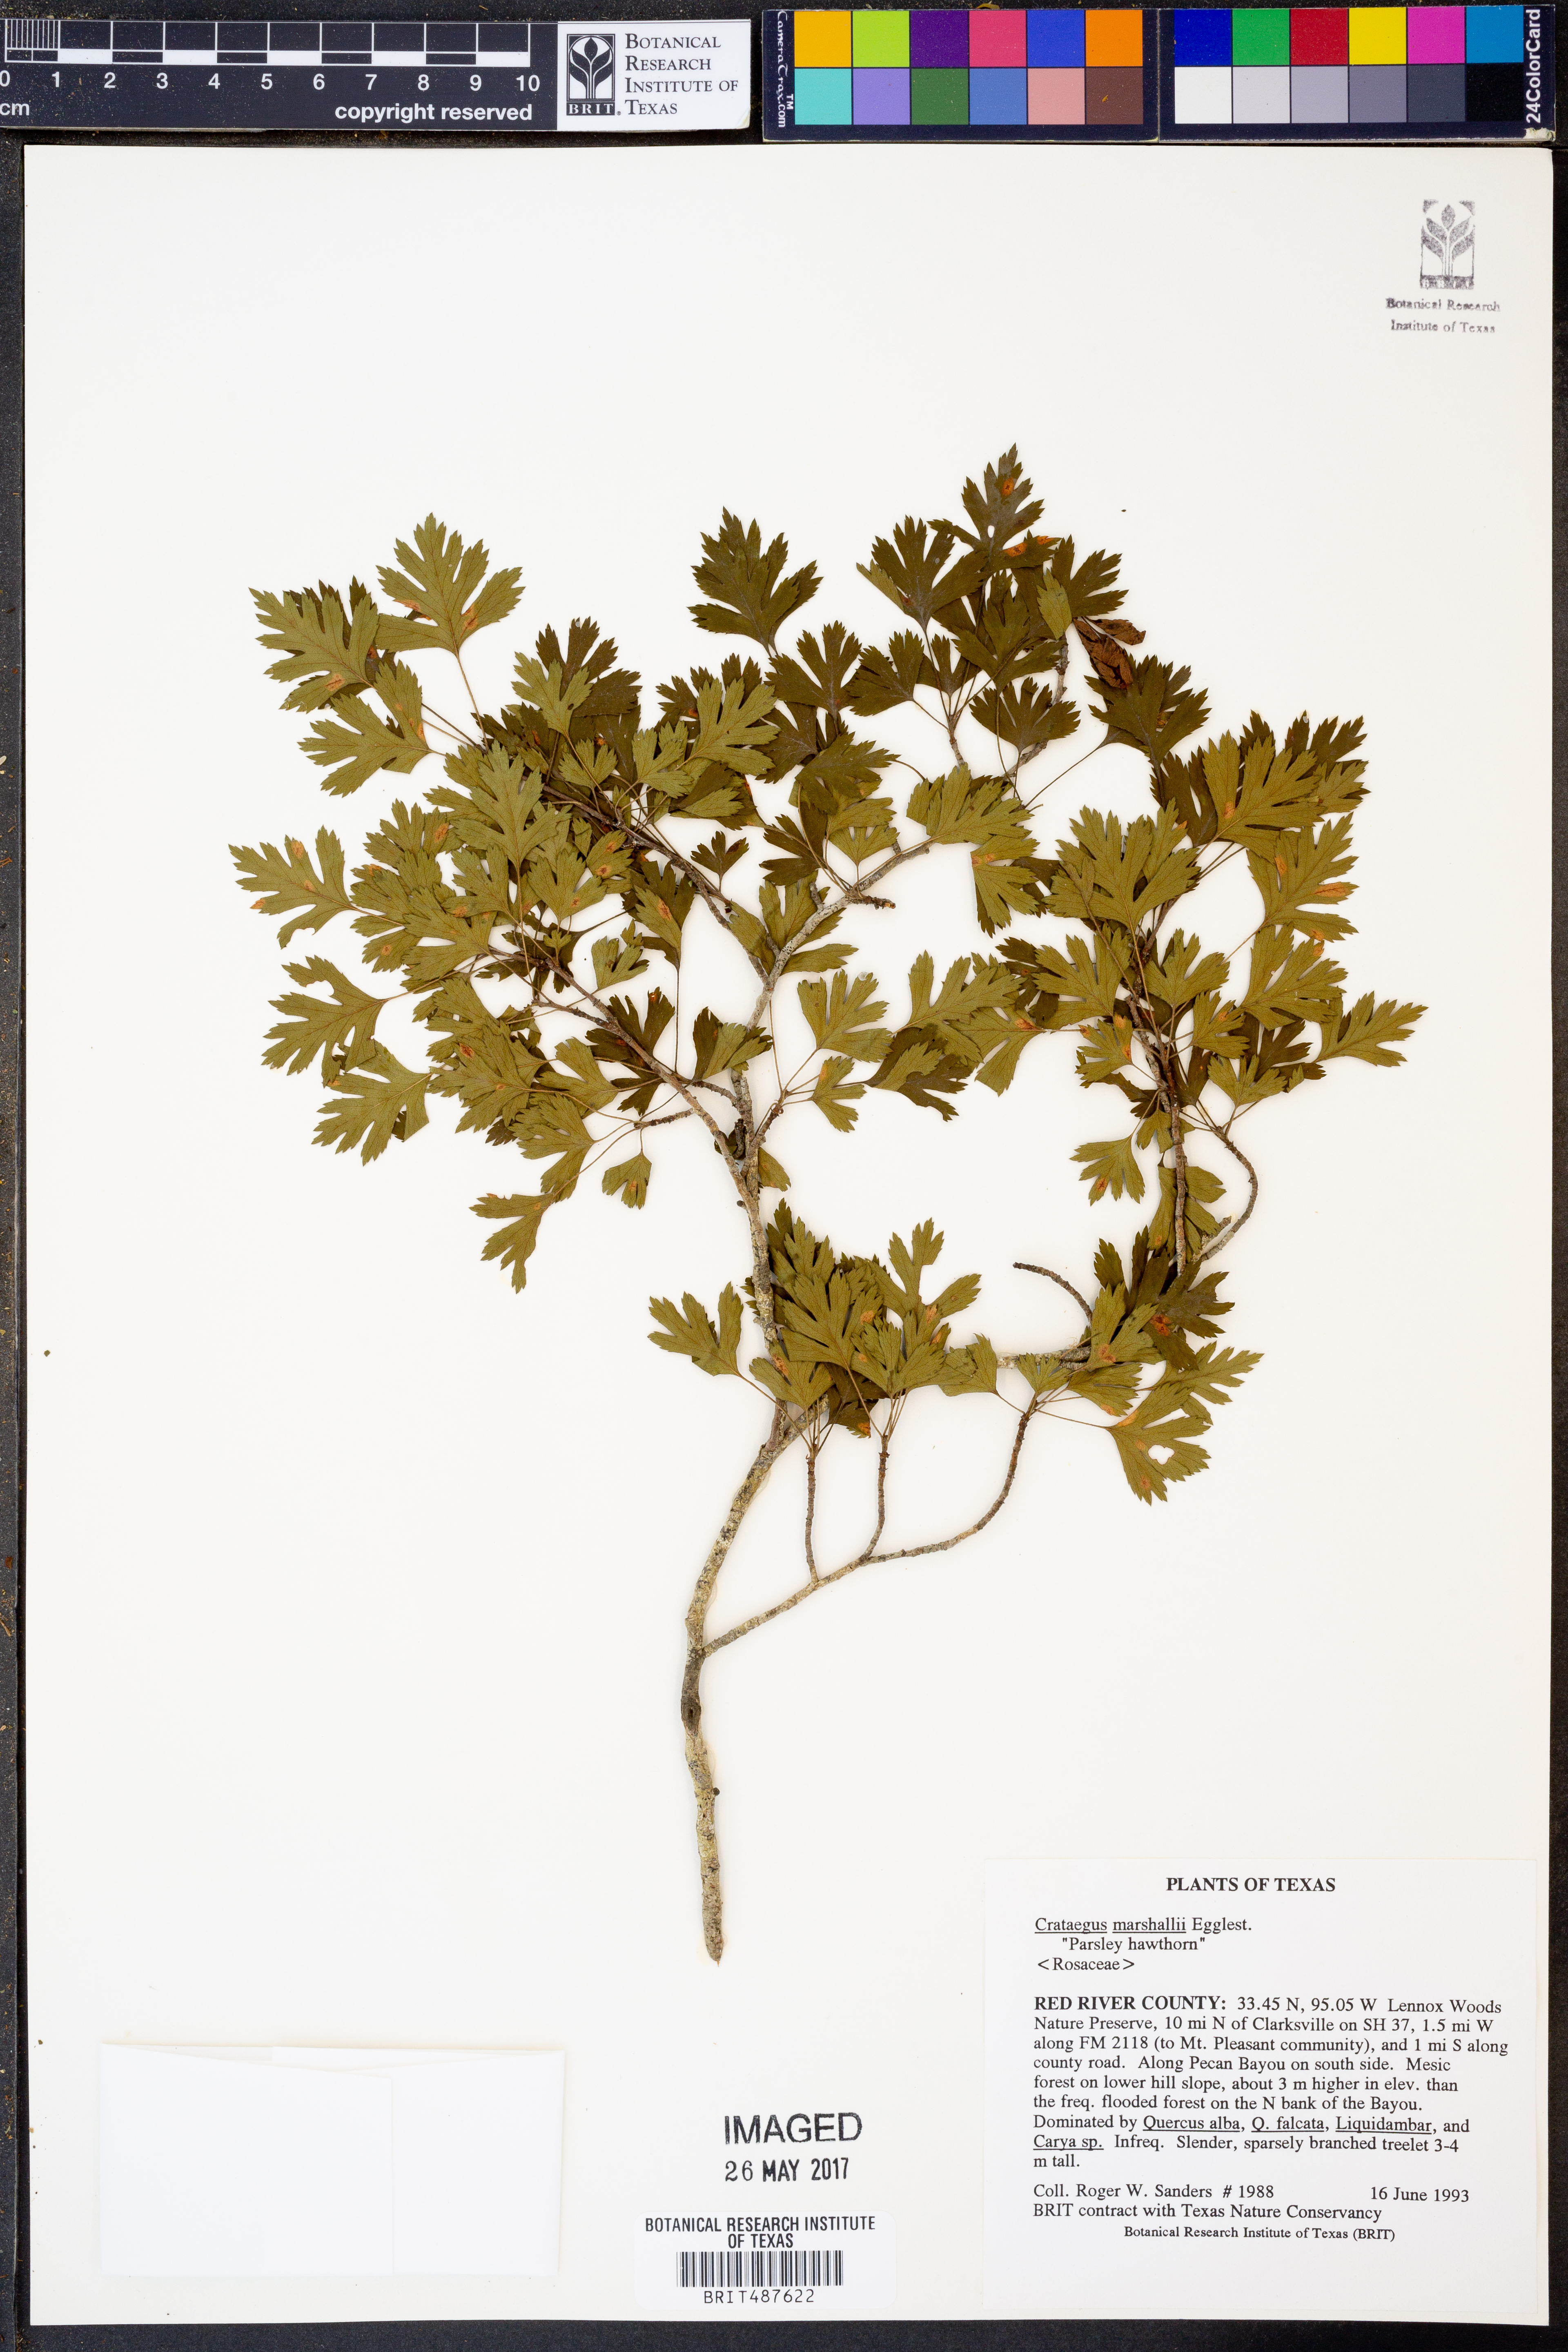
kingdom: Plantae
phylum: Tracheophyta
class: Magnoliopsida
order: Rosales
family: Rosaceae
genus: Crataegus
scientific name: Crataegus marshallii
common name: Parsley-hawthorn
